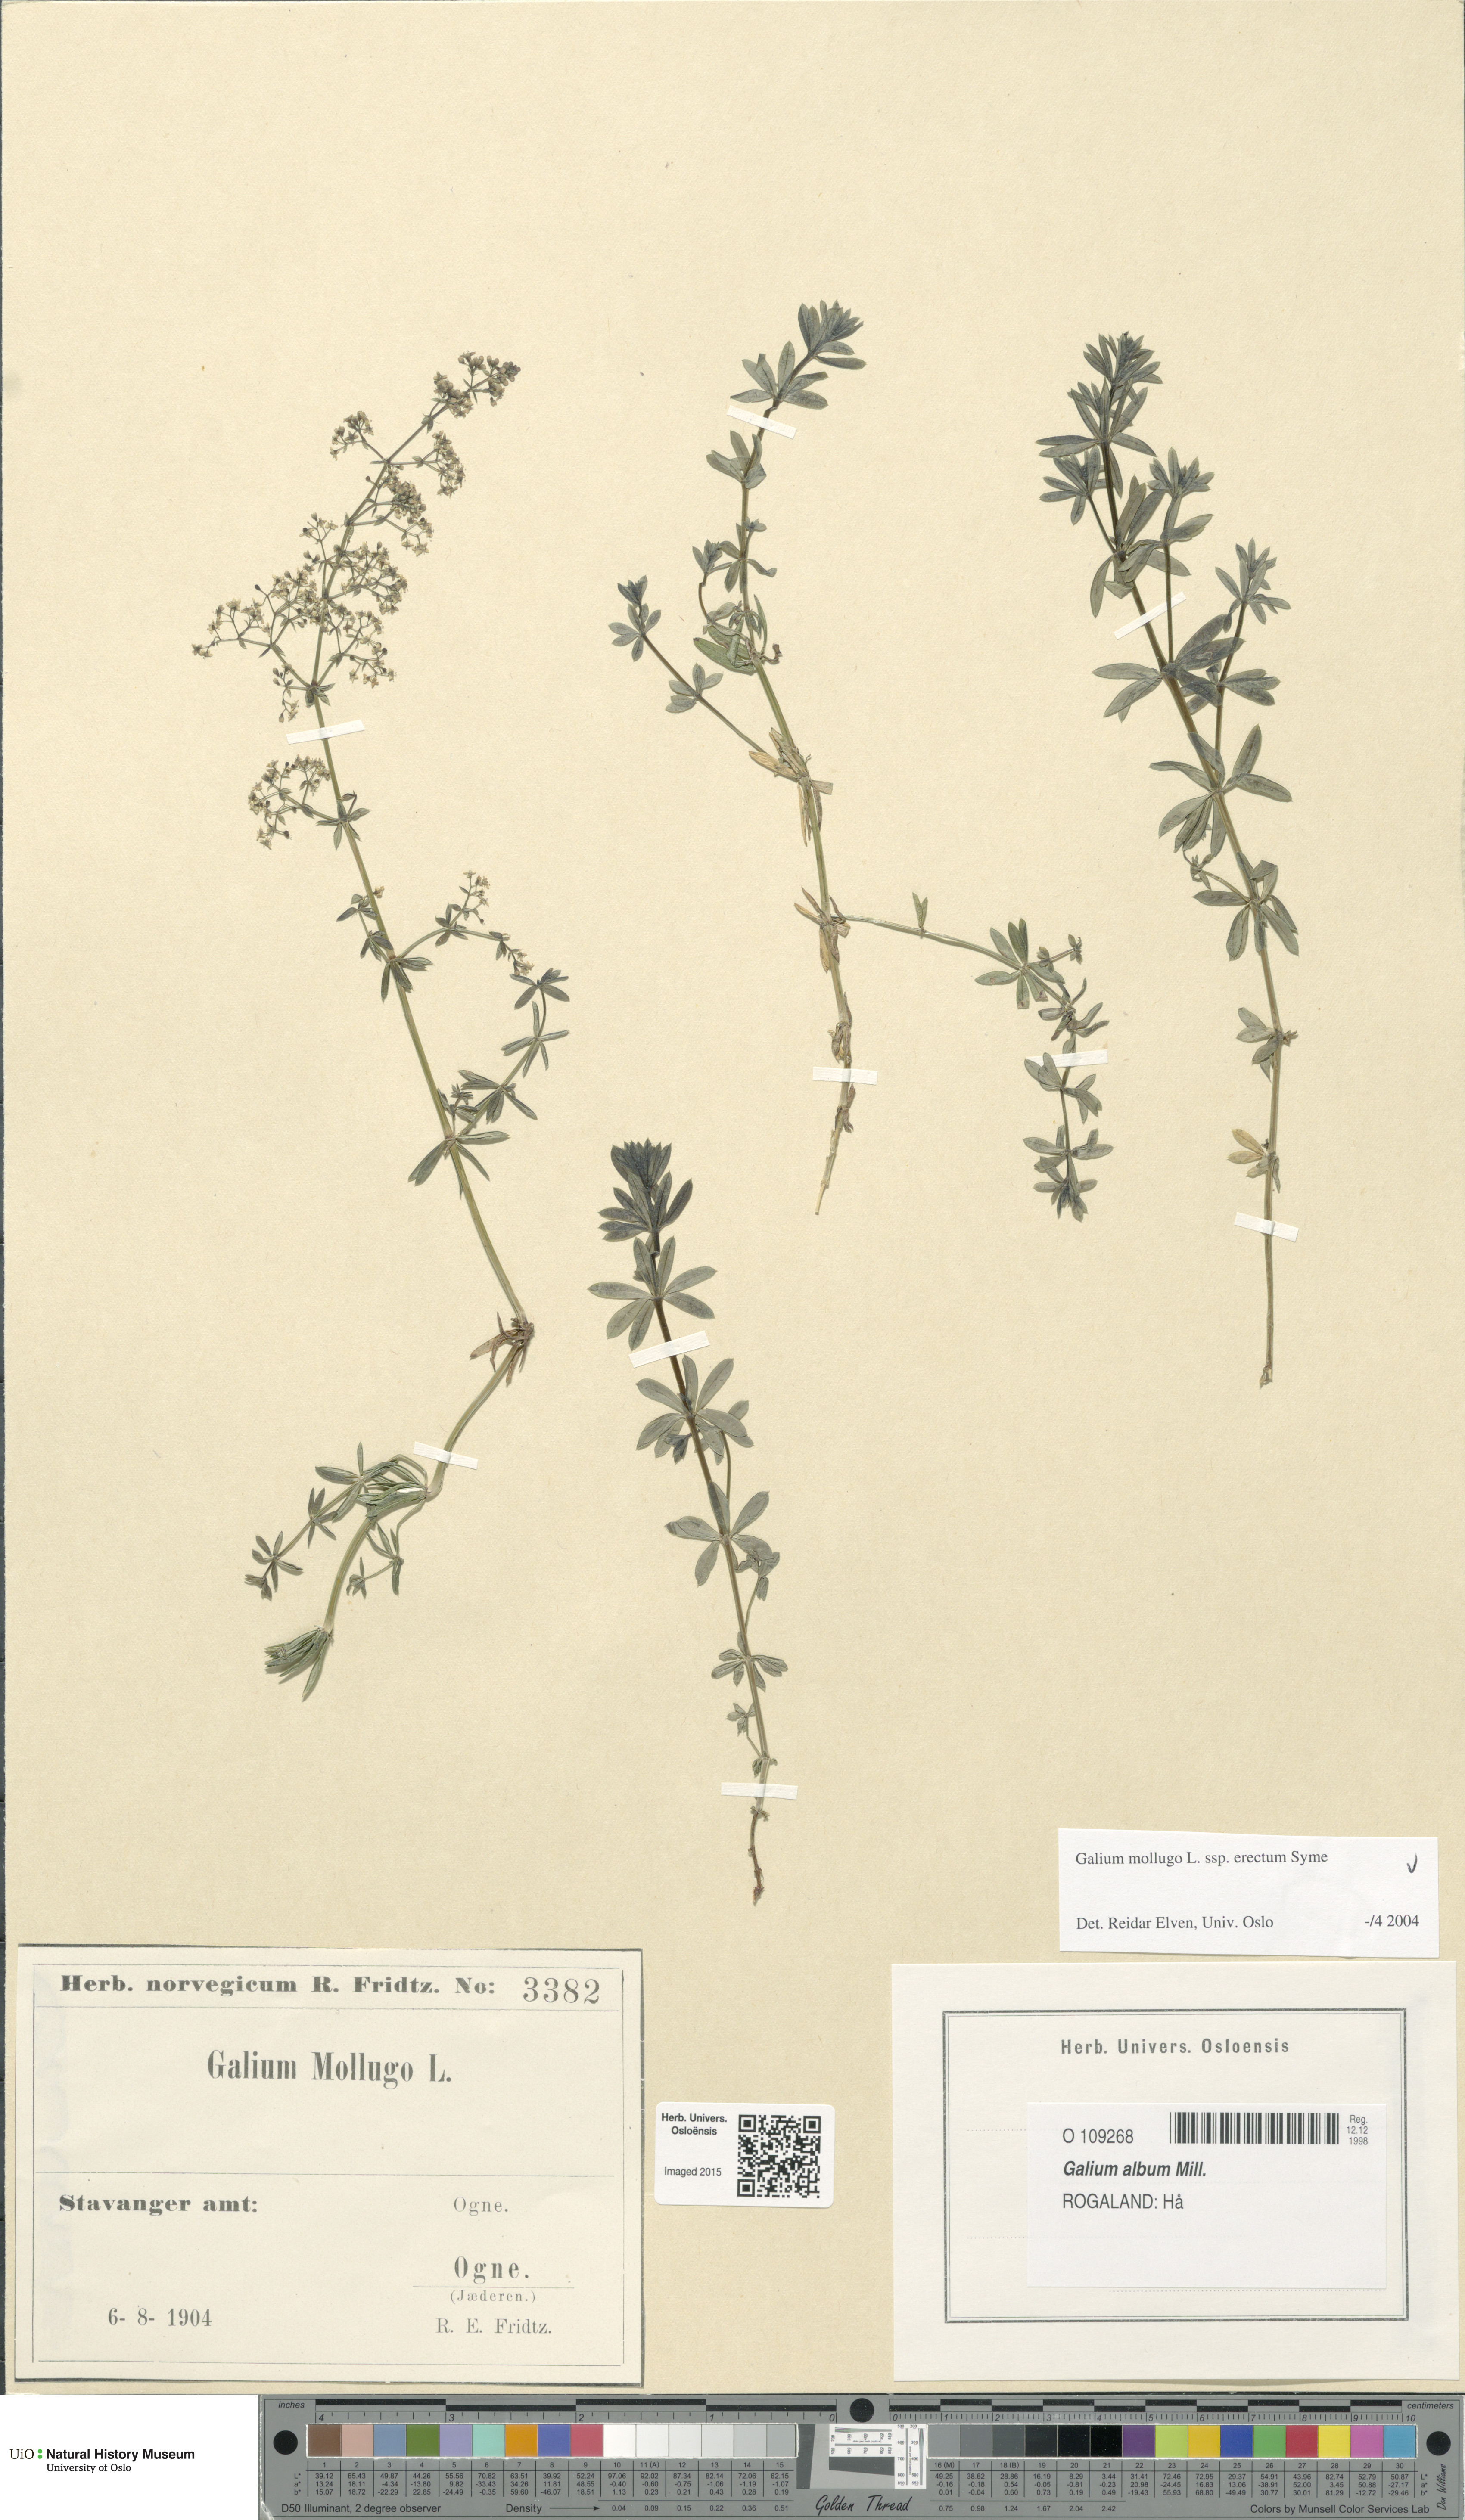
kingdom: Plantae
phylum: Tracheophyta
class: Magnoliopsida
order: Gentianales
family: Rubiaceae
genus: Galium
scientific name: Galium album
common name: White bedstraw
